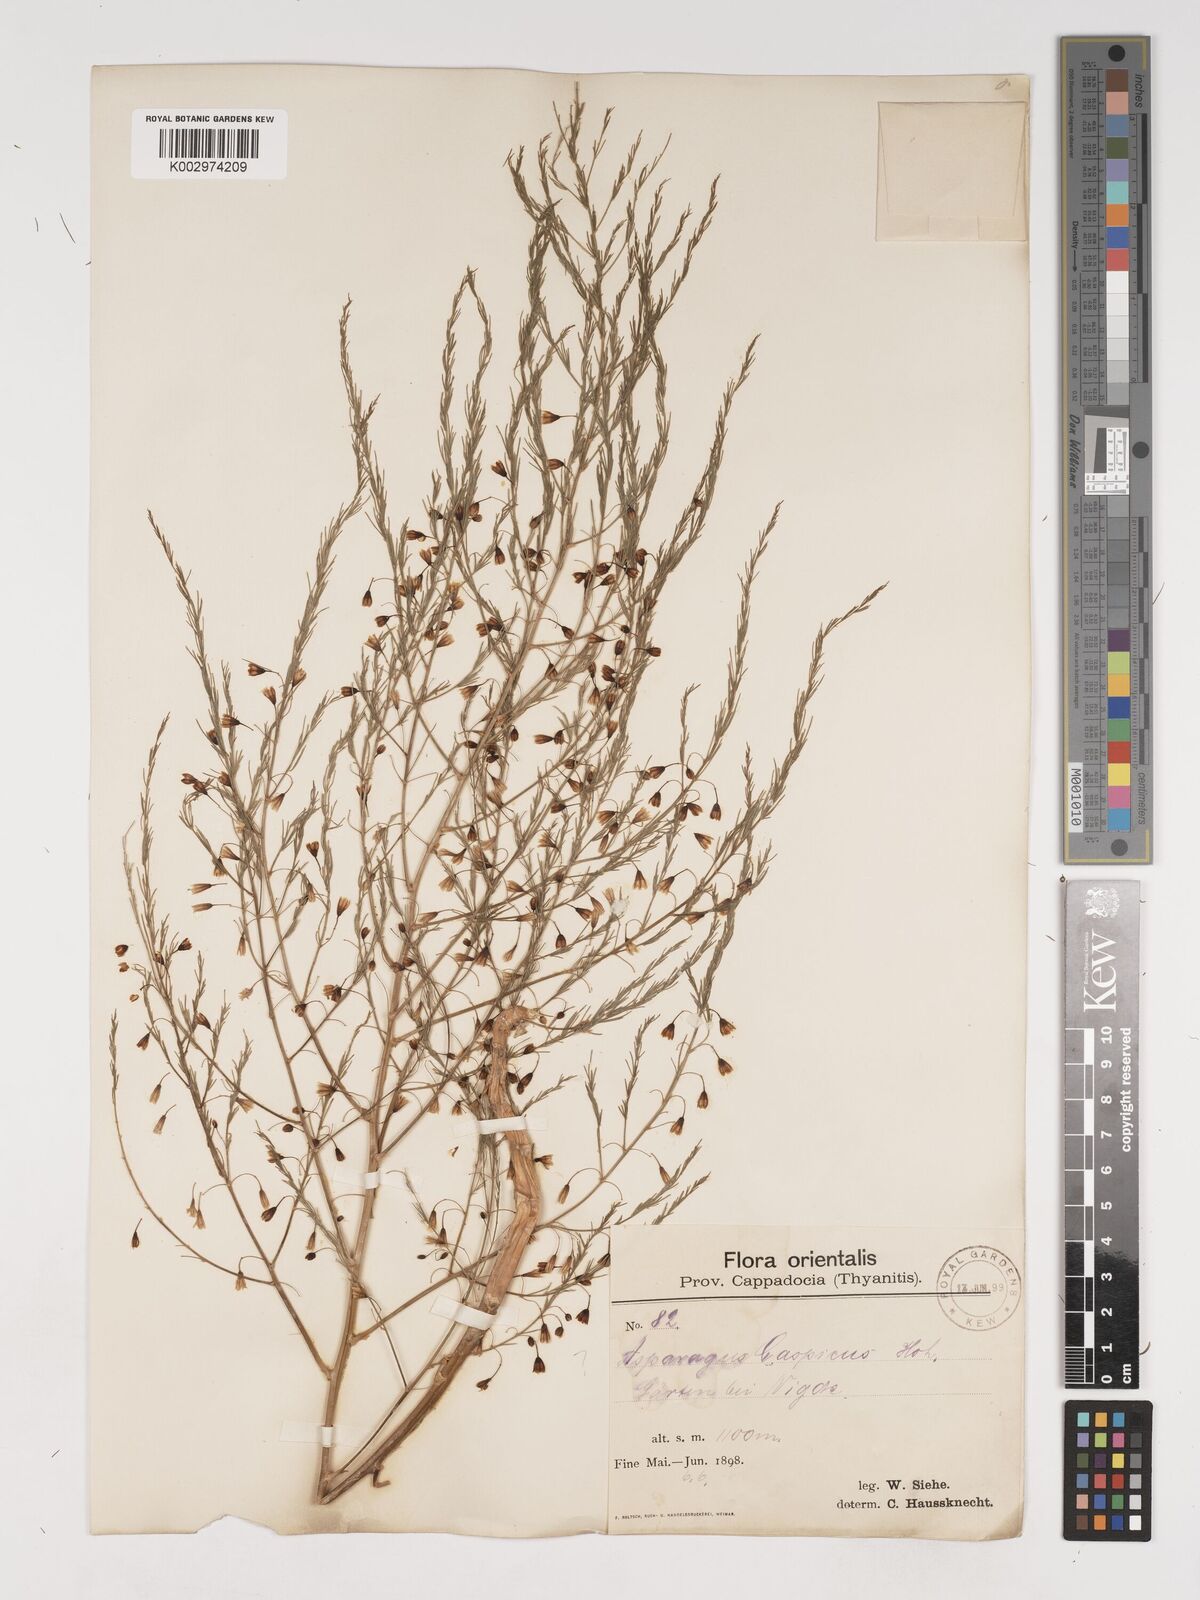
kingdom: Plantae
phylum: Tracheophyta
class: Liliopsida
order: Asparagales
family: Asparagaceae
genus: Asparagus
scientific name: Asparagus officinalis
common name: Garden asparagus
